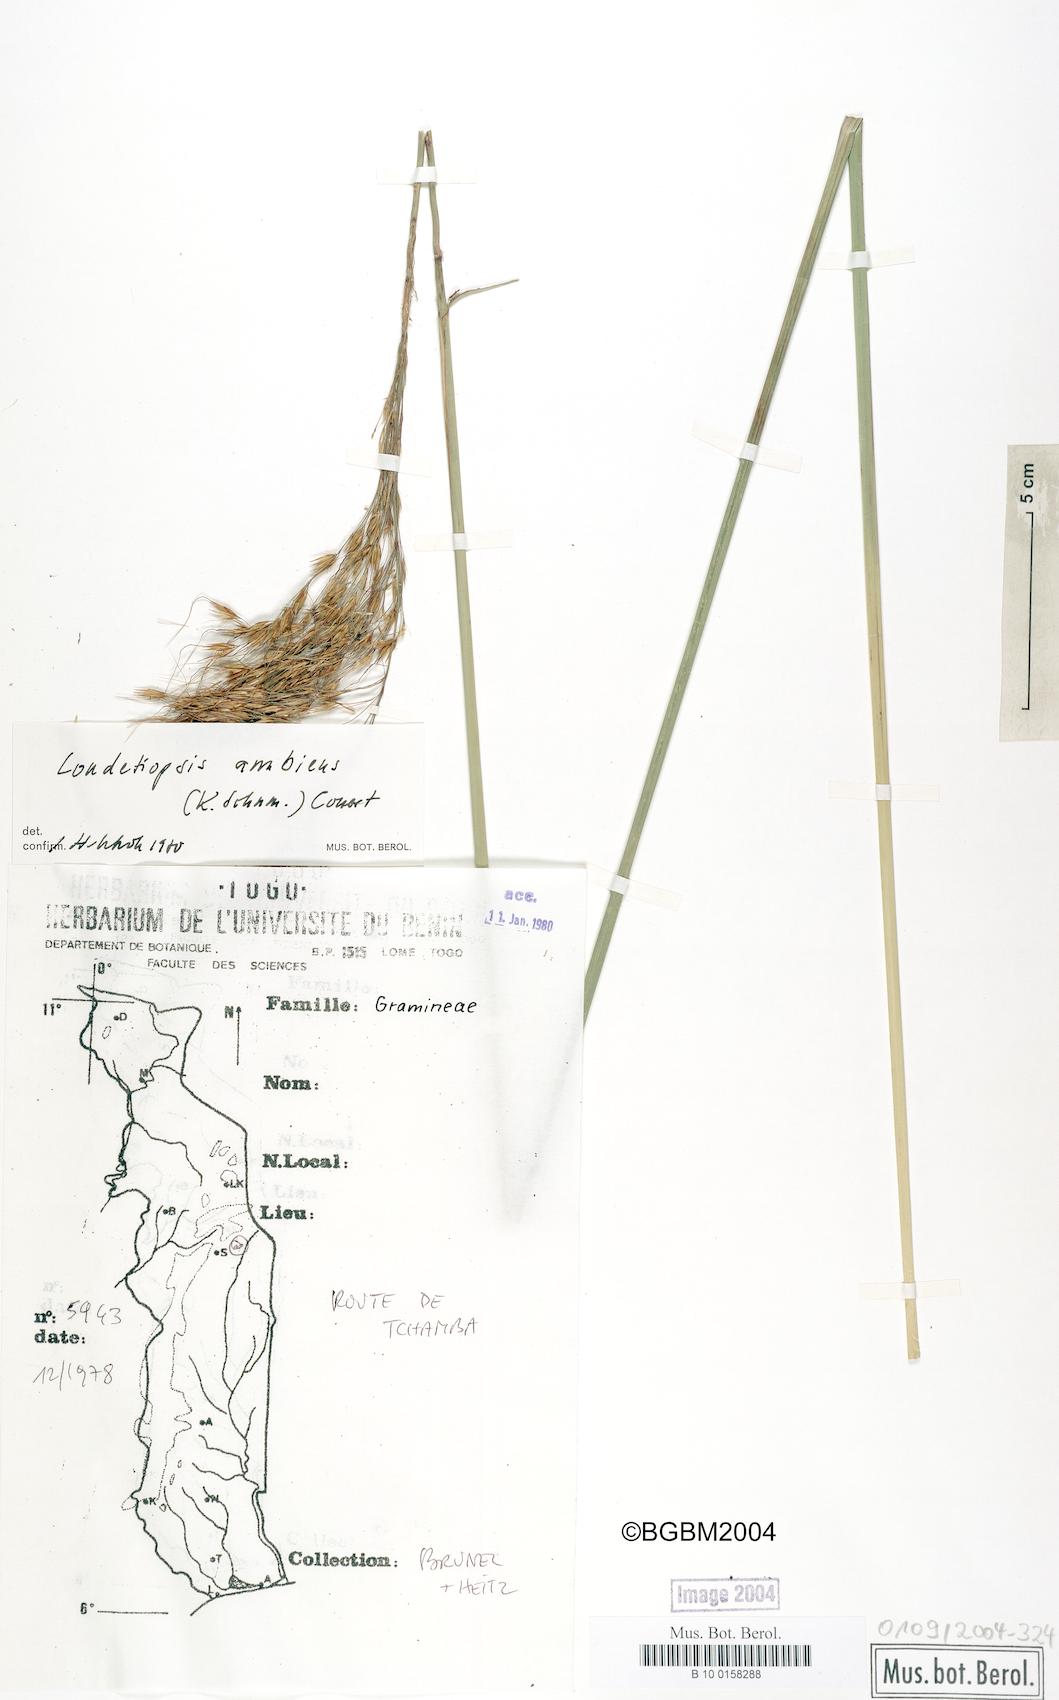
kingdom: Plantae
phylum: Tracheophyta
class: Liliopsida
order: Poales
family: Poaceae
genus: Loudetiopsis
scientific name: Loudetiopsis ambiens
